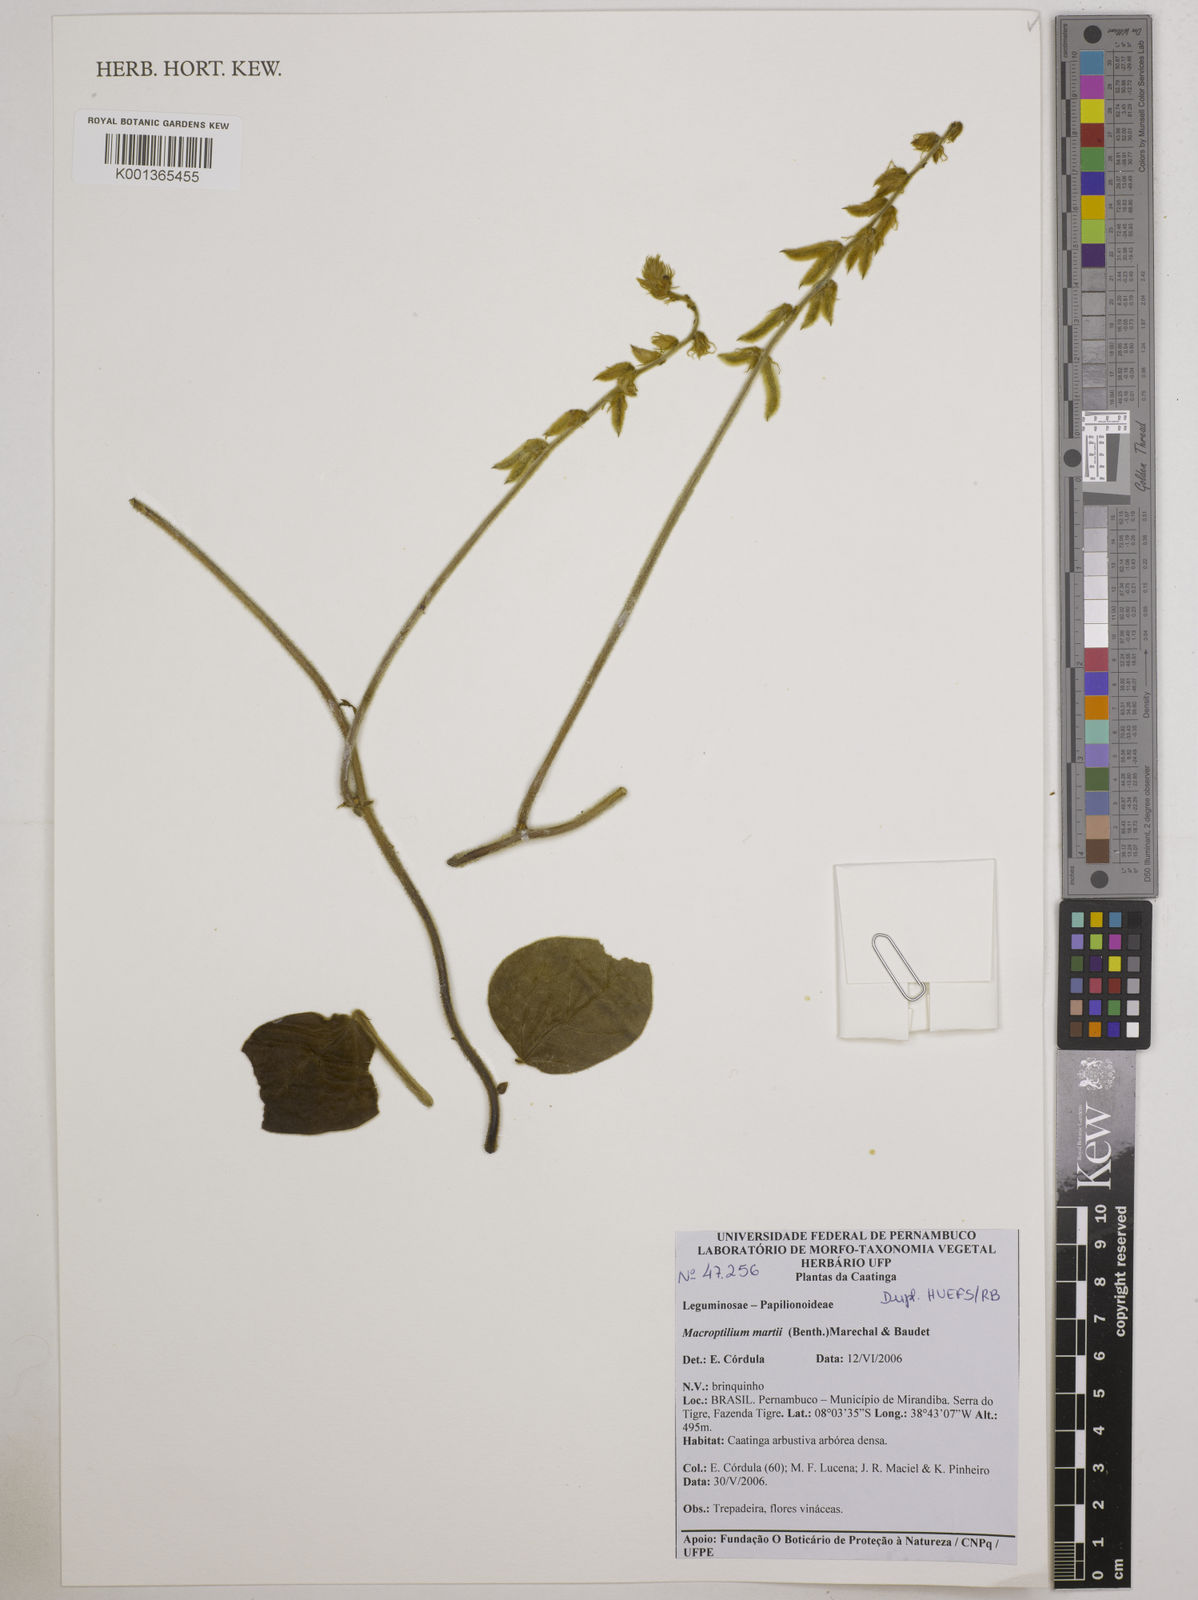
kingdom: Plantae
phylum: Tracheophyta
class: Magnoliopsida
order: Fabales
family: Fabaceae
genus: Macroptilium
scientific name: Macroptilium martii
